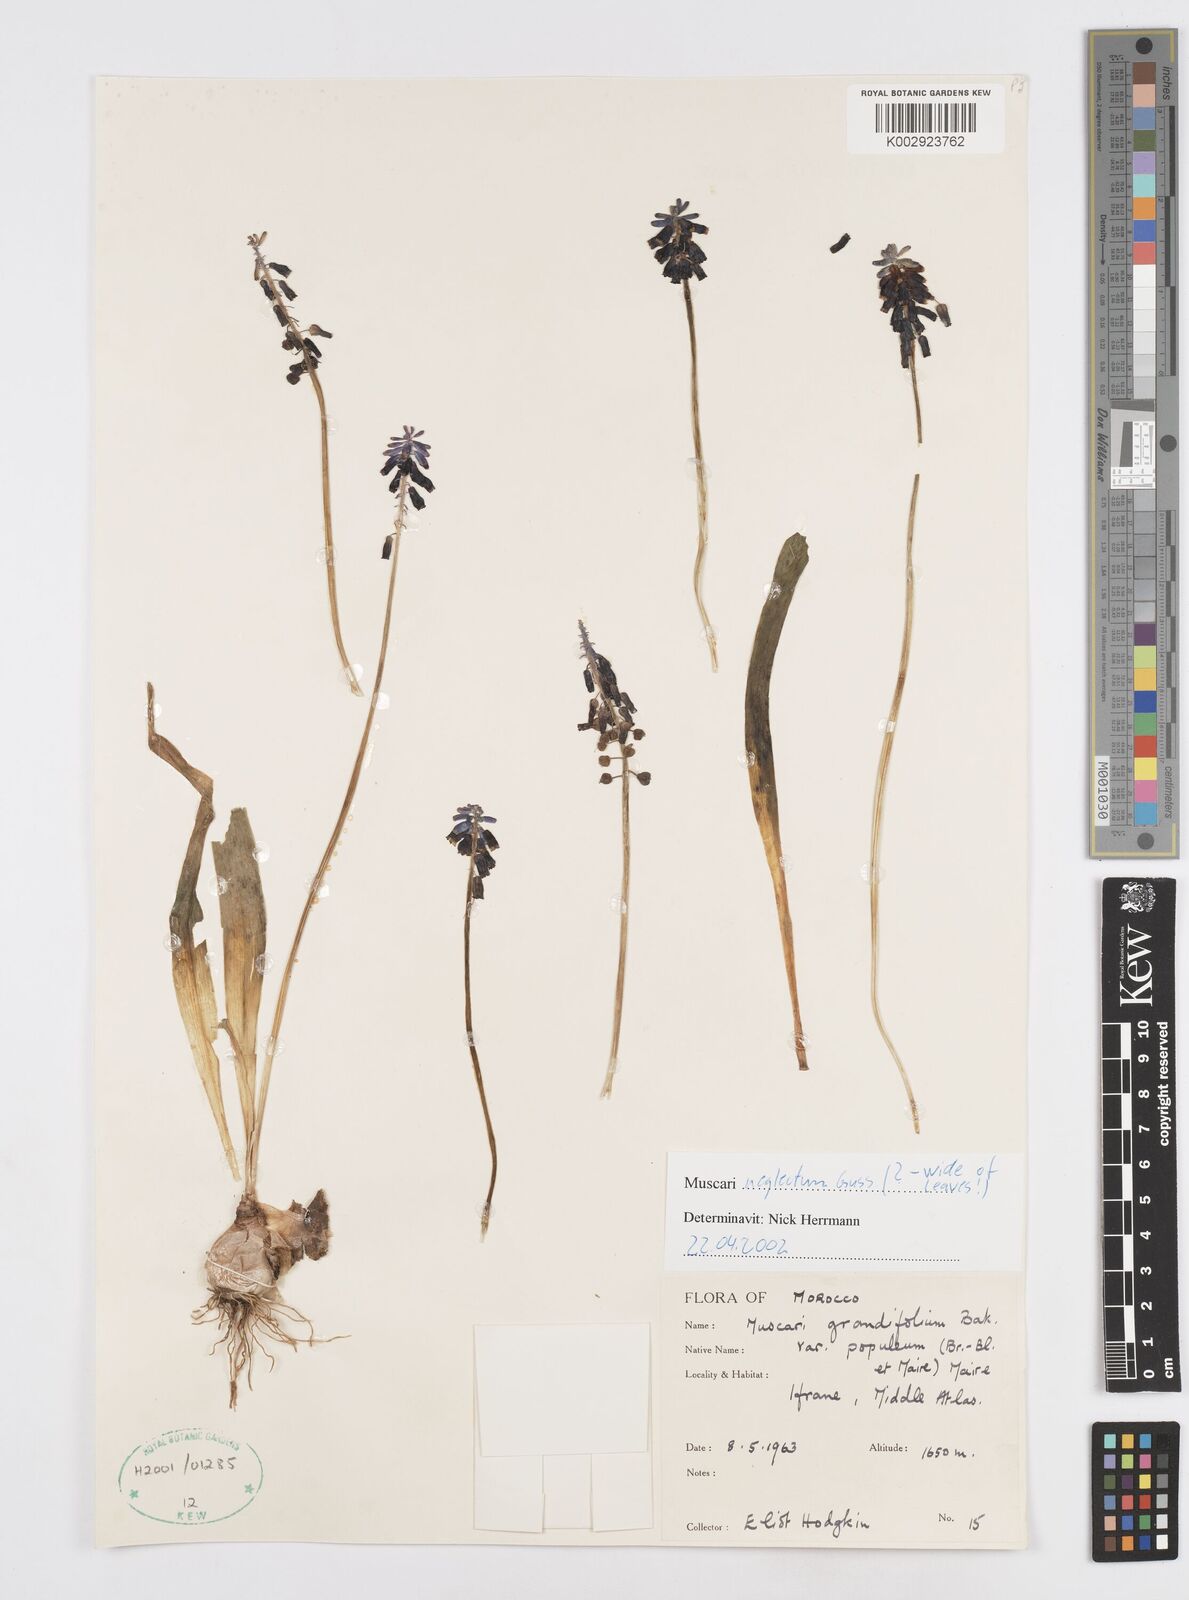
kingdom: Plantae
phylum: Tracheophyta
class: Liliopsida
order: Asparagales
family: Asparagaceae
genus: Muscari
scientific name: Muscari neglectum
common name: Grape-hyacinth
